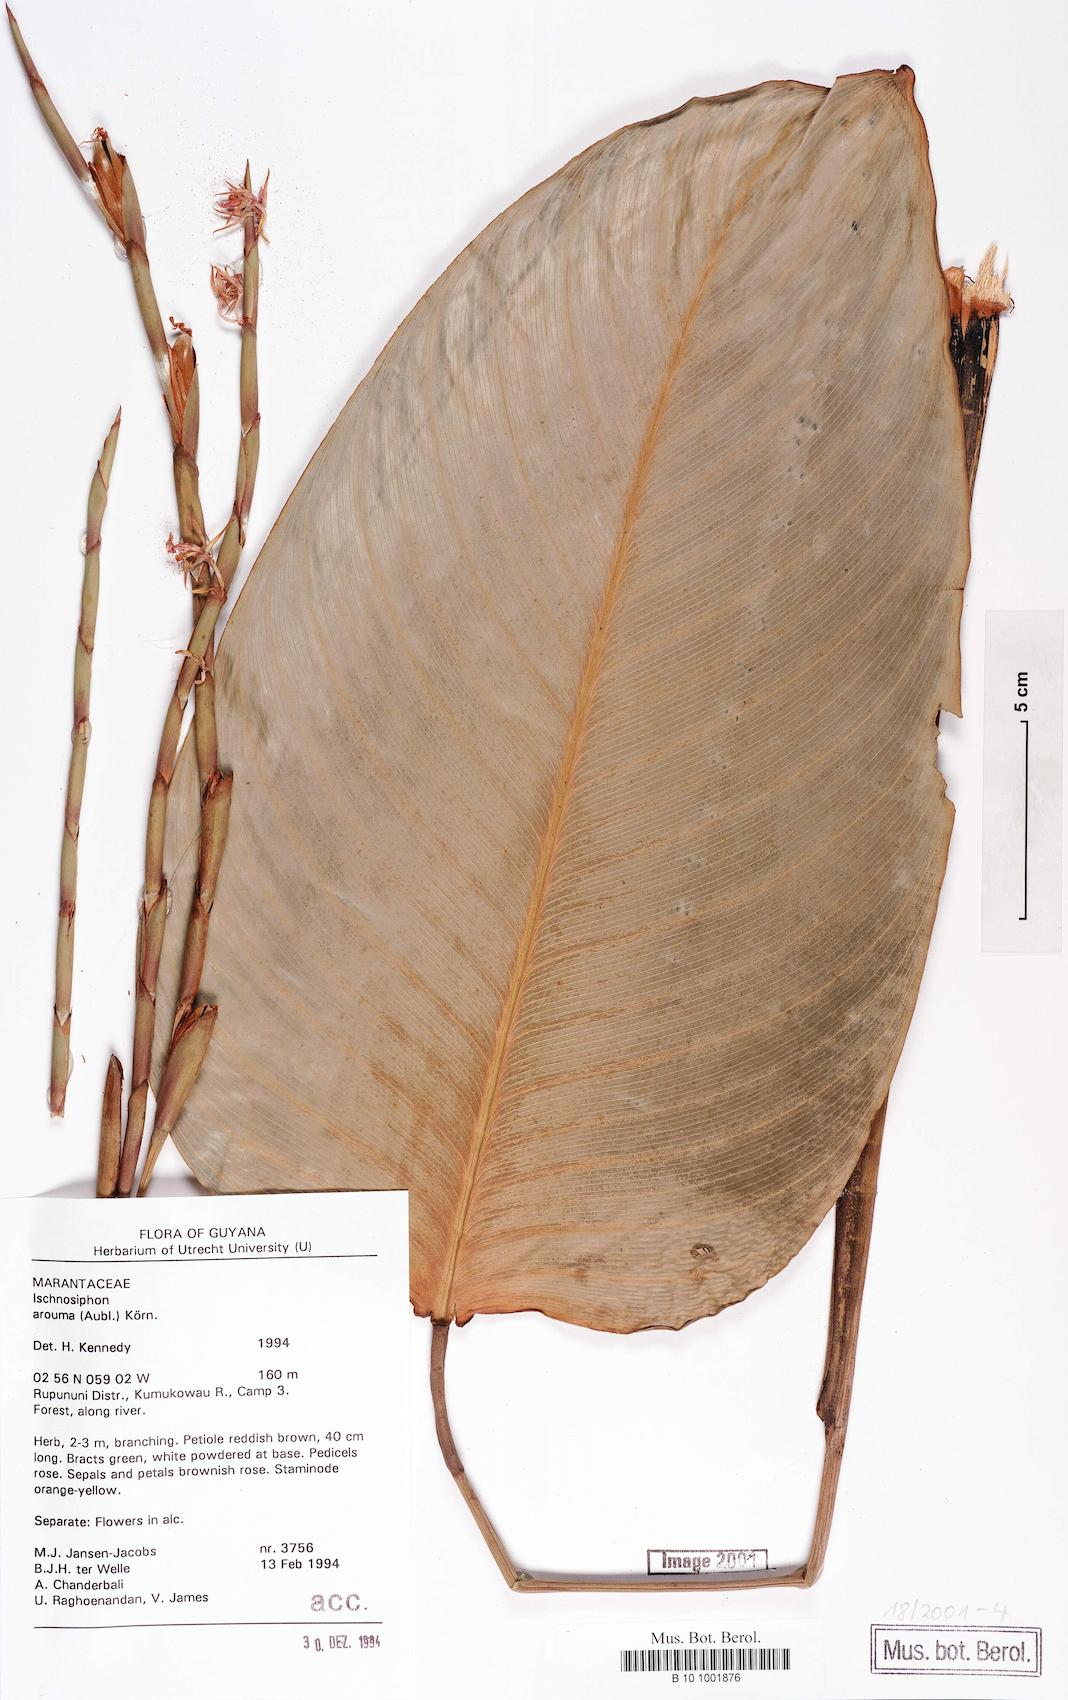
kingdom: Plantae
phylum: Tracheophyta
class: Liliopsida
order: Zingiberales
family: Marantaceae
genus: Ischnosiphon
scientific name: Ischnosiphon arouma
